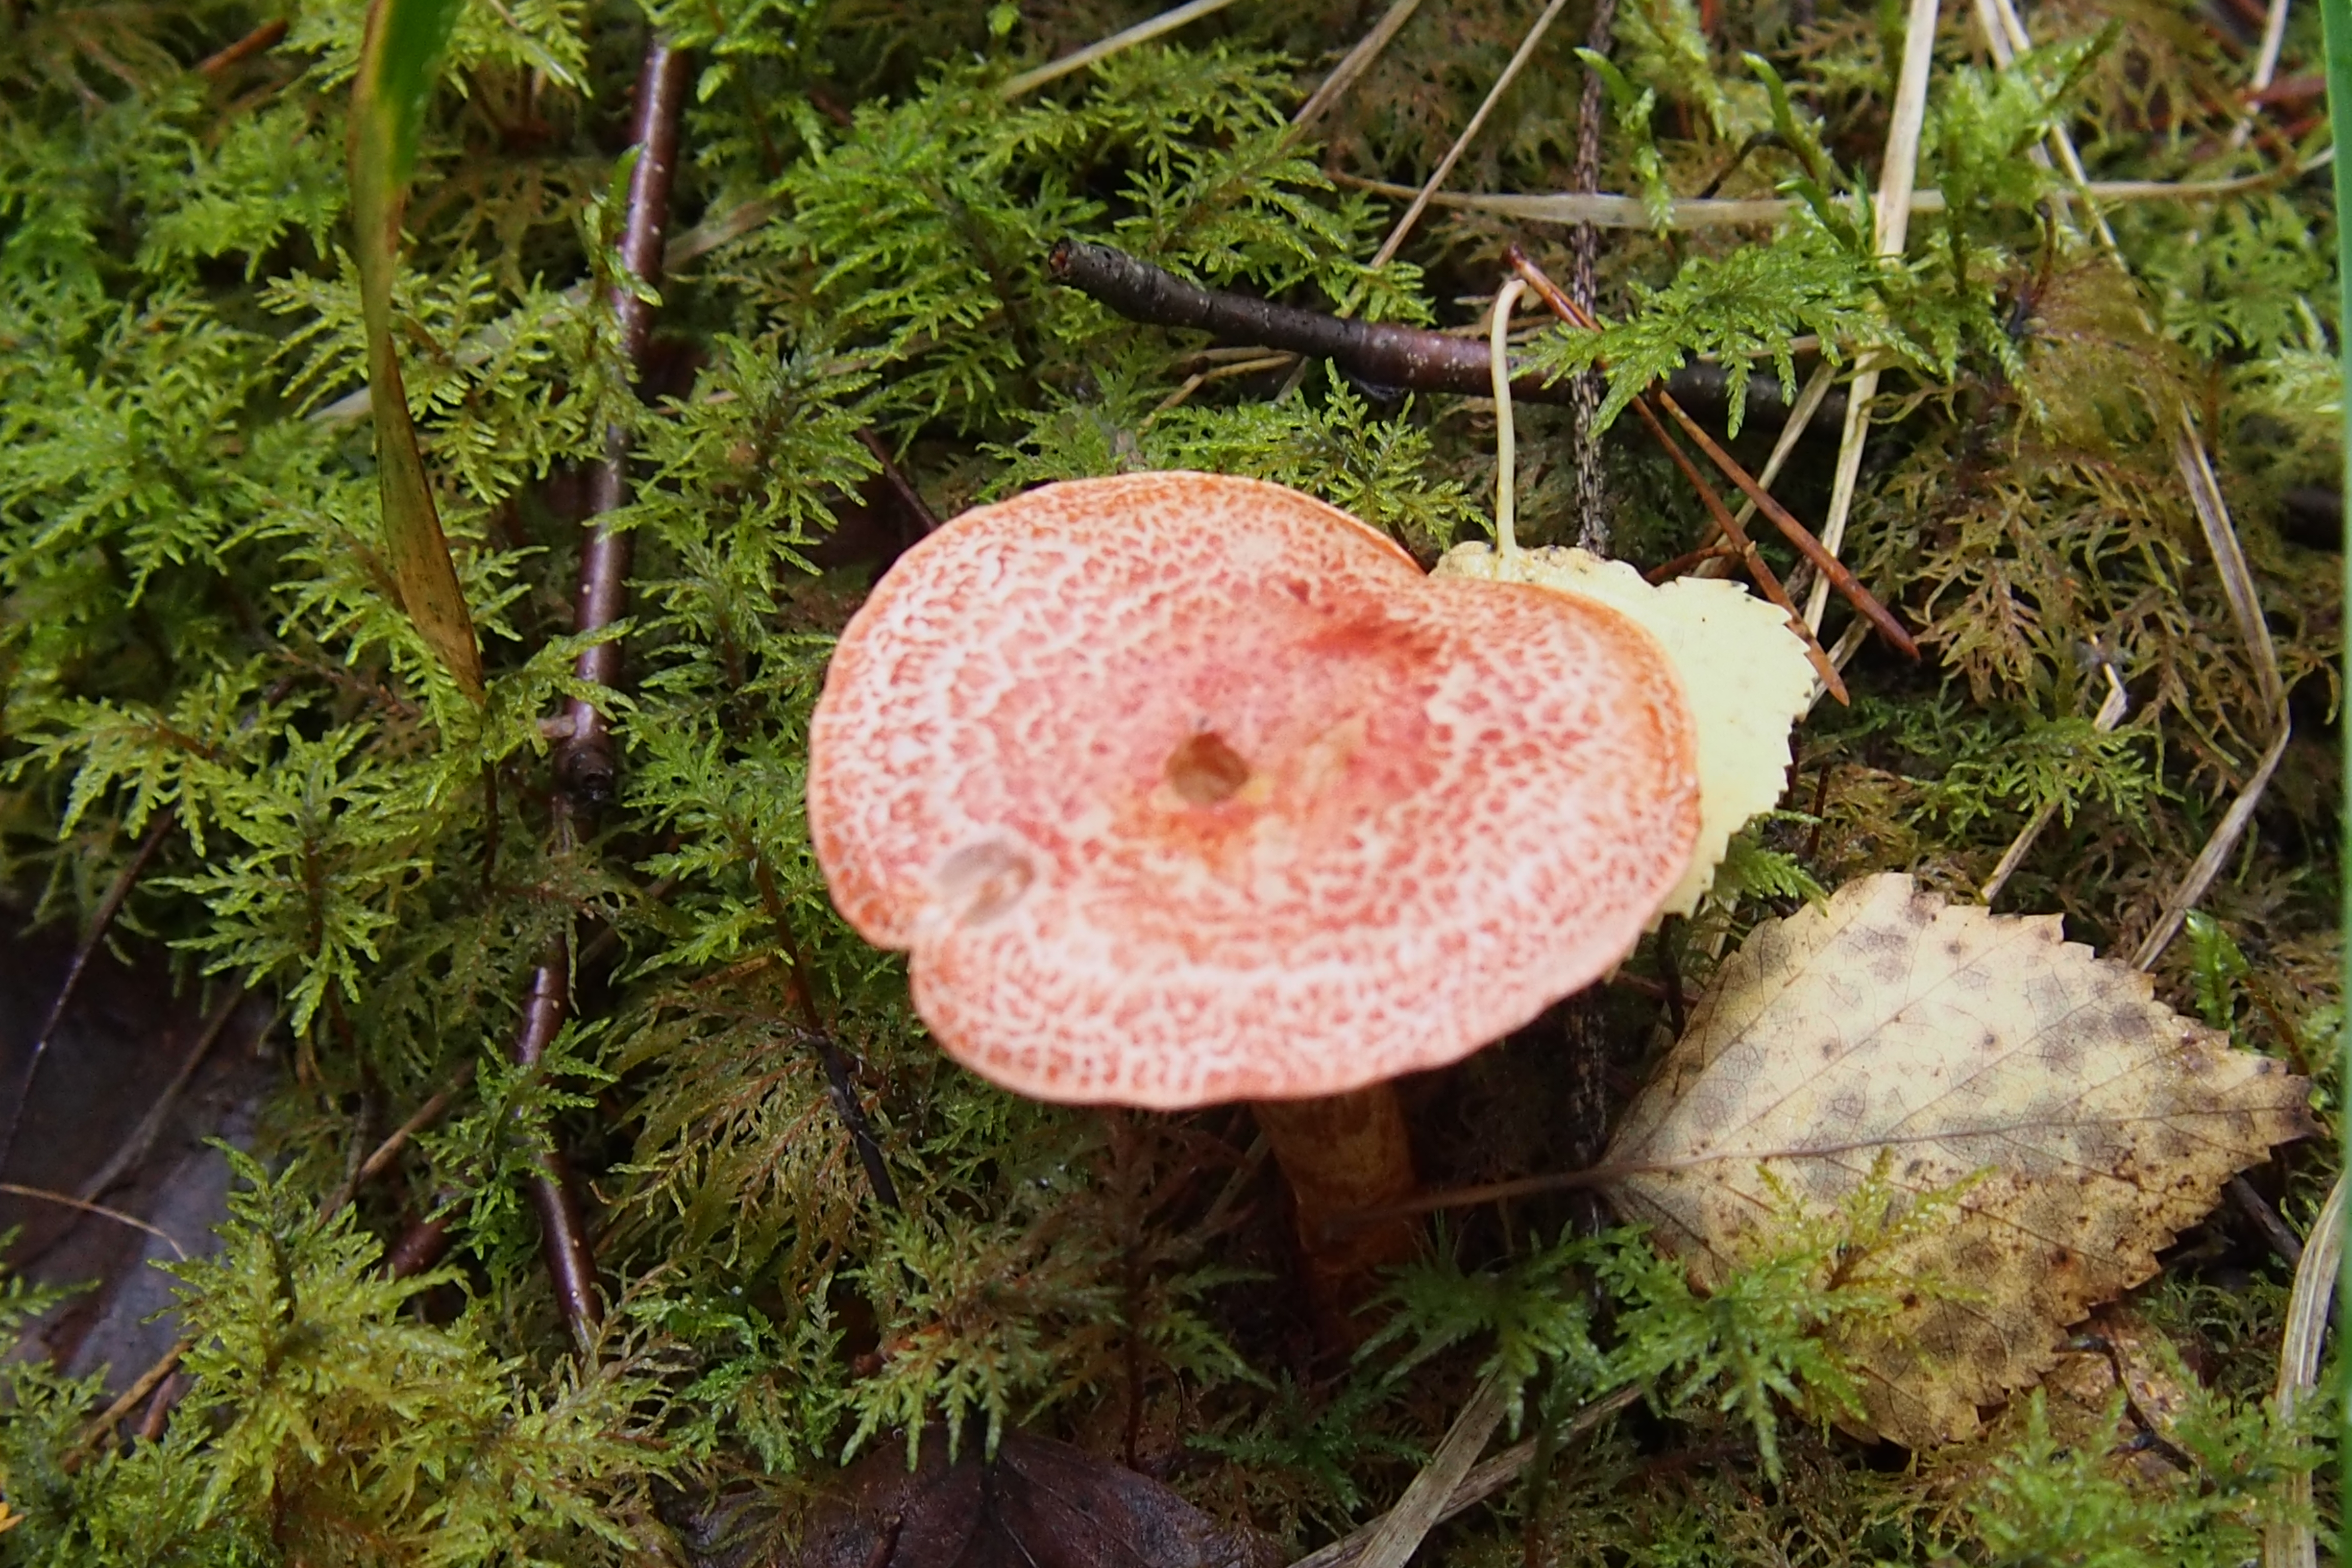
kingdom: Fungi
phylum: Basidiomycota
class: Agaricomycetes
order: Agaricales
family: Cortinariaceae
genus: Cortinarius
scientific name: Cortinarius bolaris
